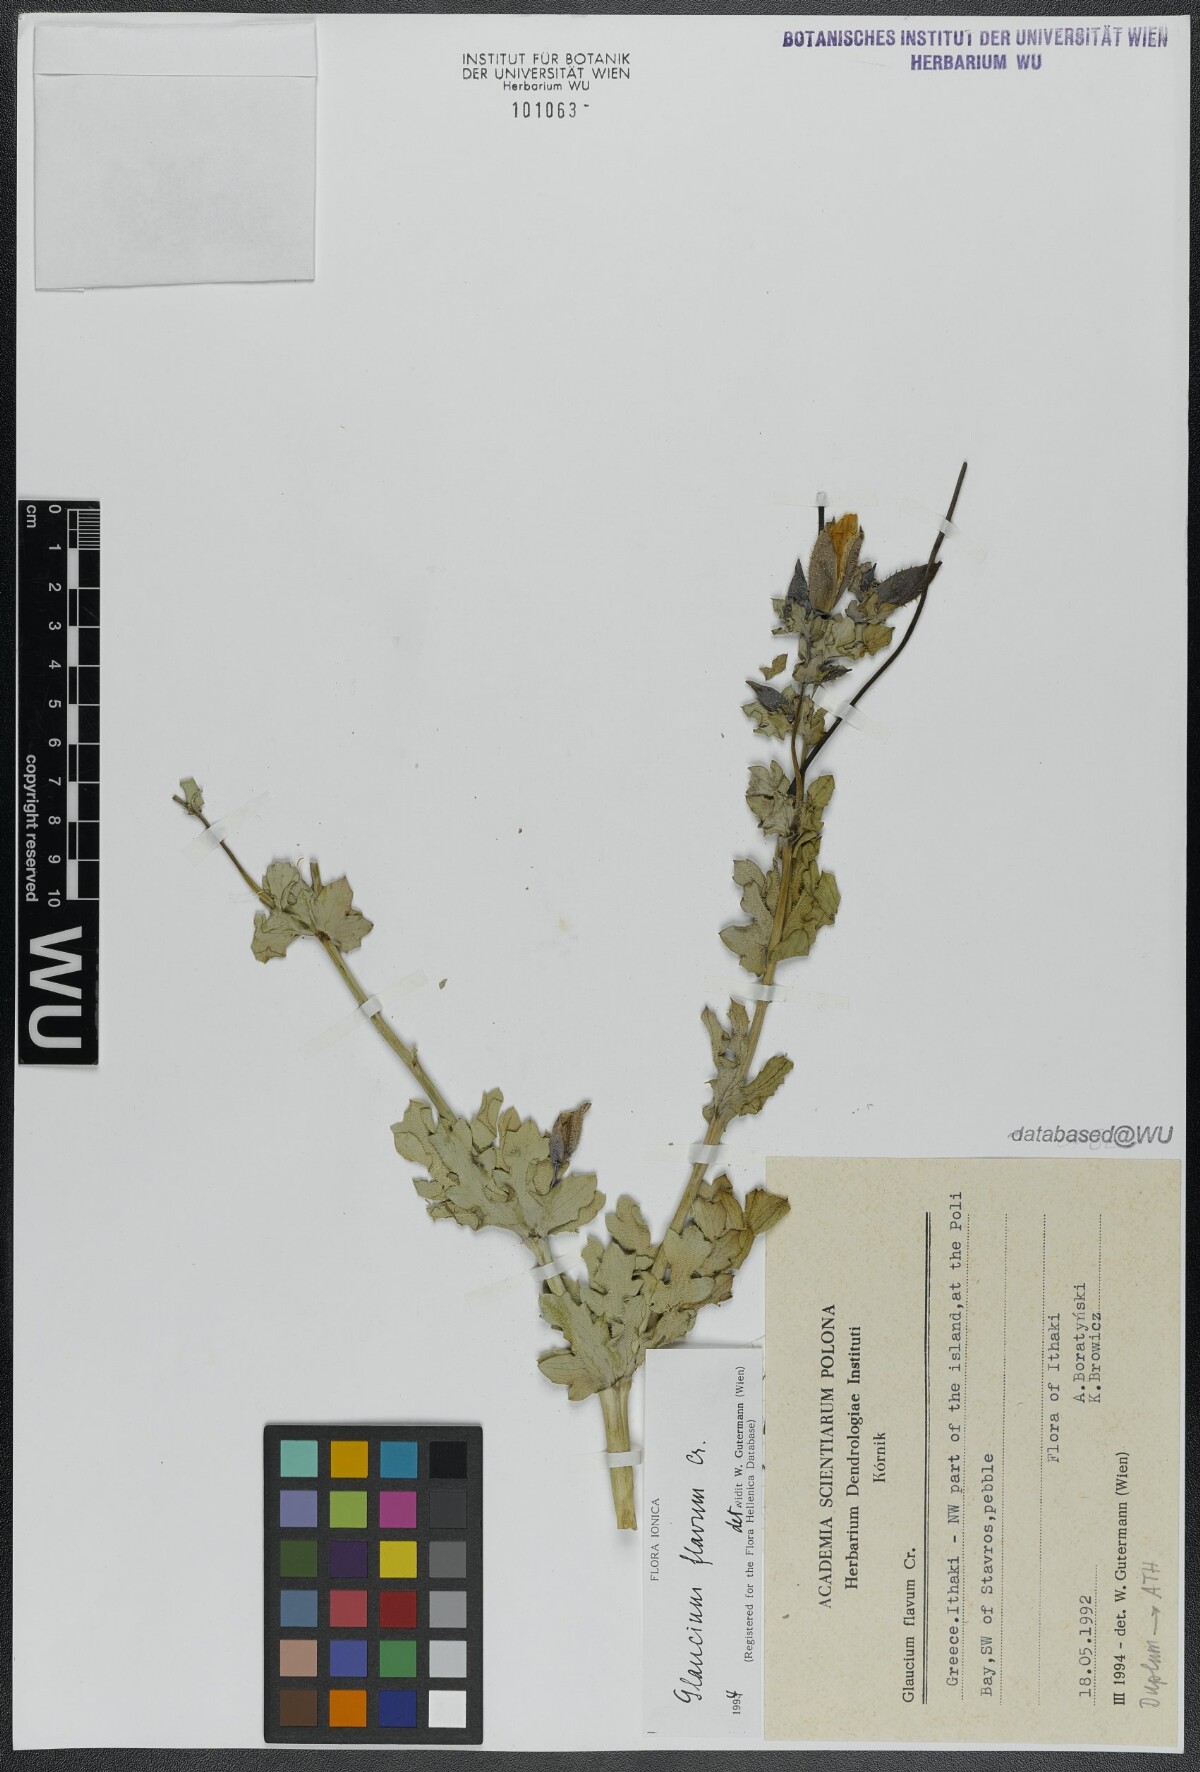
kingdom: Plantae
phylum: Tracheophyta
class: Magnoliopsida
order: Ranunculales
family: Papaveraceae
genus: Glaucium
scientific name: Glaucium flavum
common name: Yellow horned-poppy
